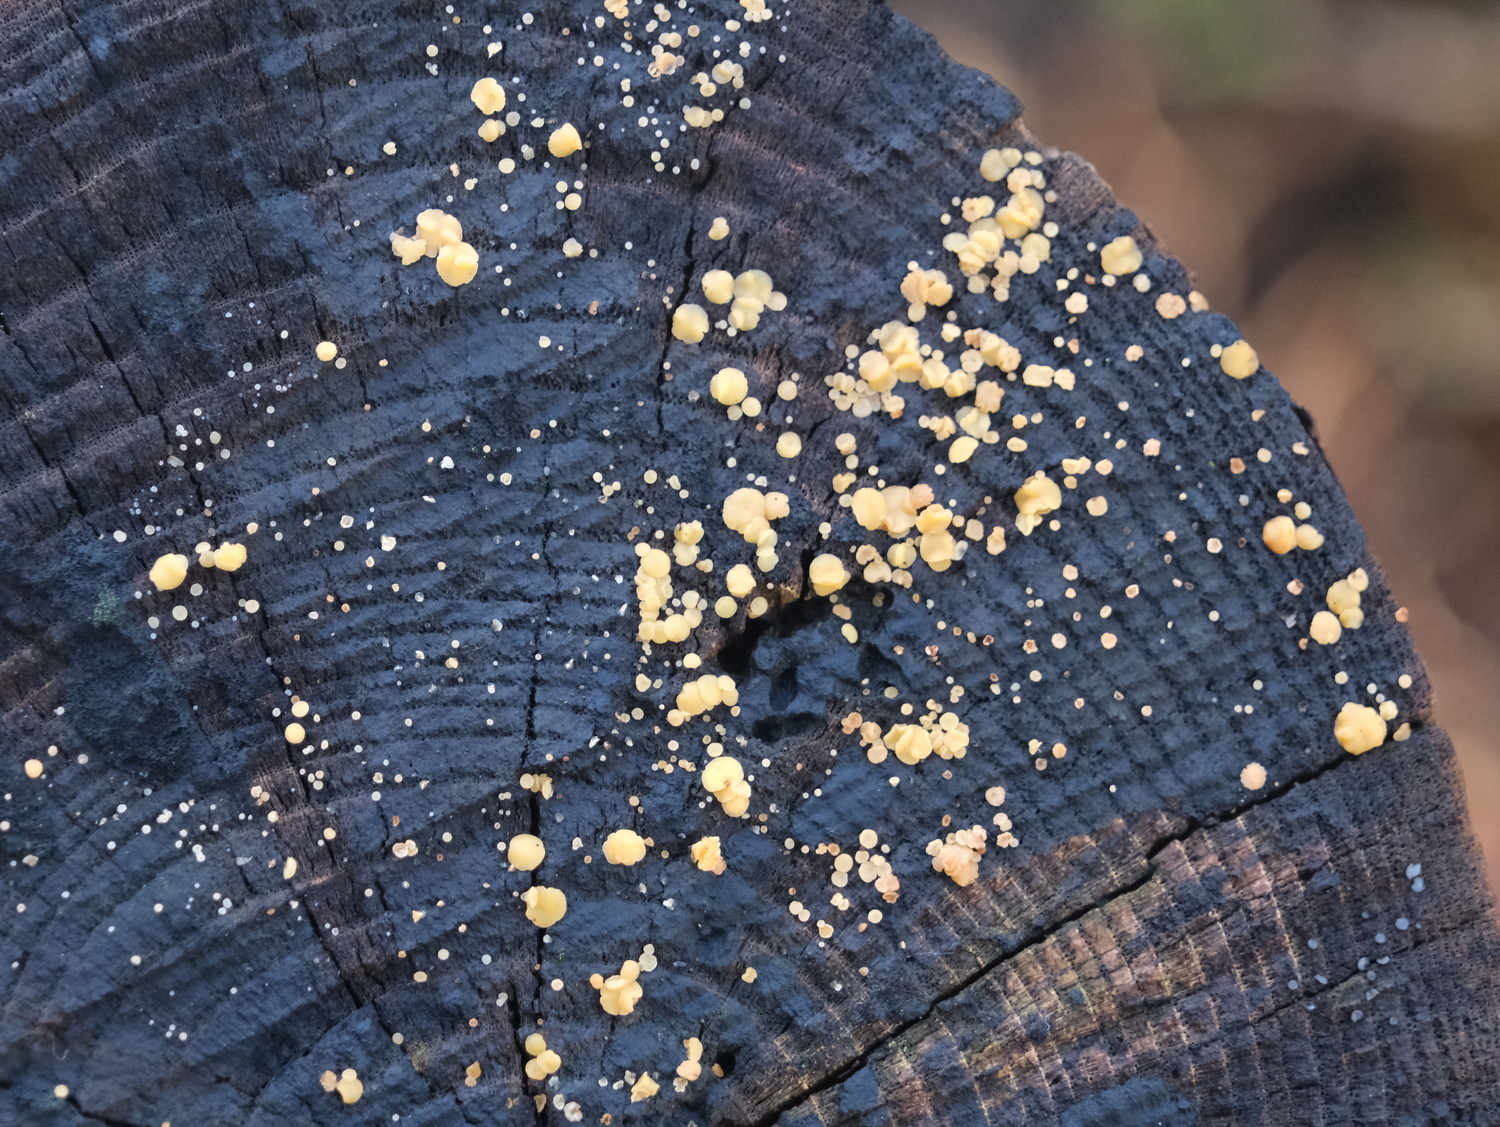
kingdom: Fungi
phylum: Ascomycota
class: Leotiomycetes
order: Helotiales
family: Helotiaceae
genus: Bisporella
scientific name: Bisporella
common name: snitskive
